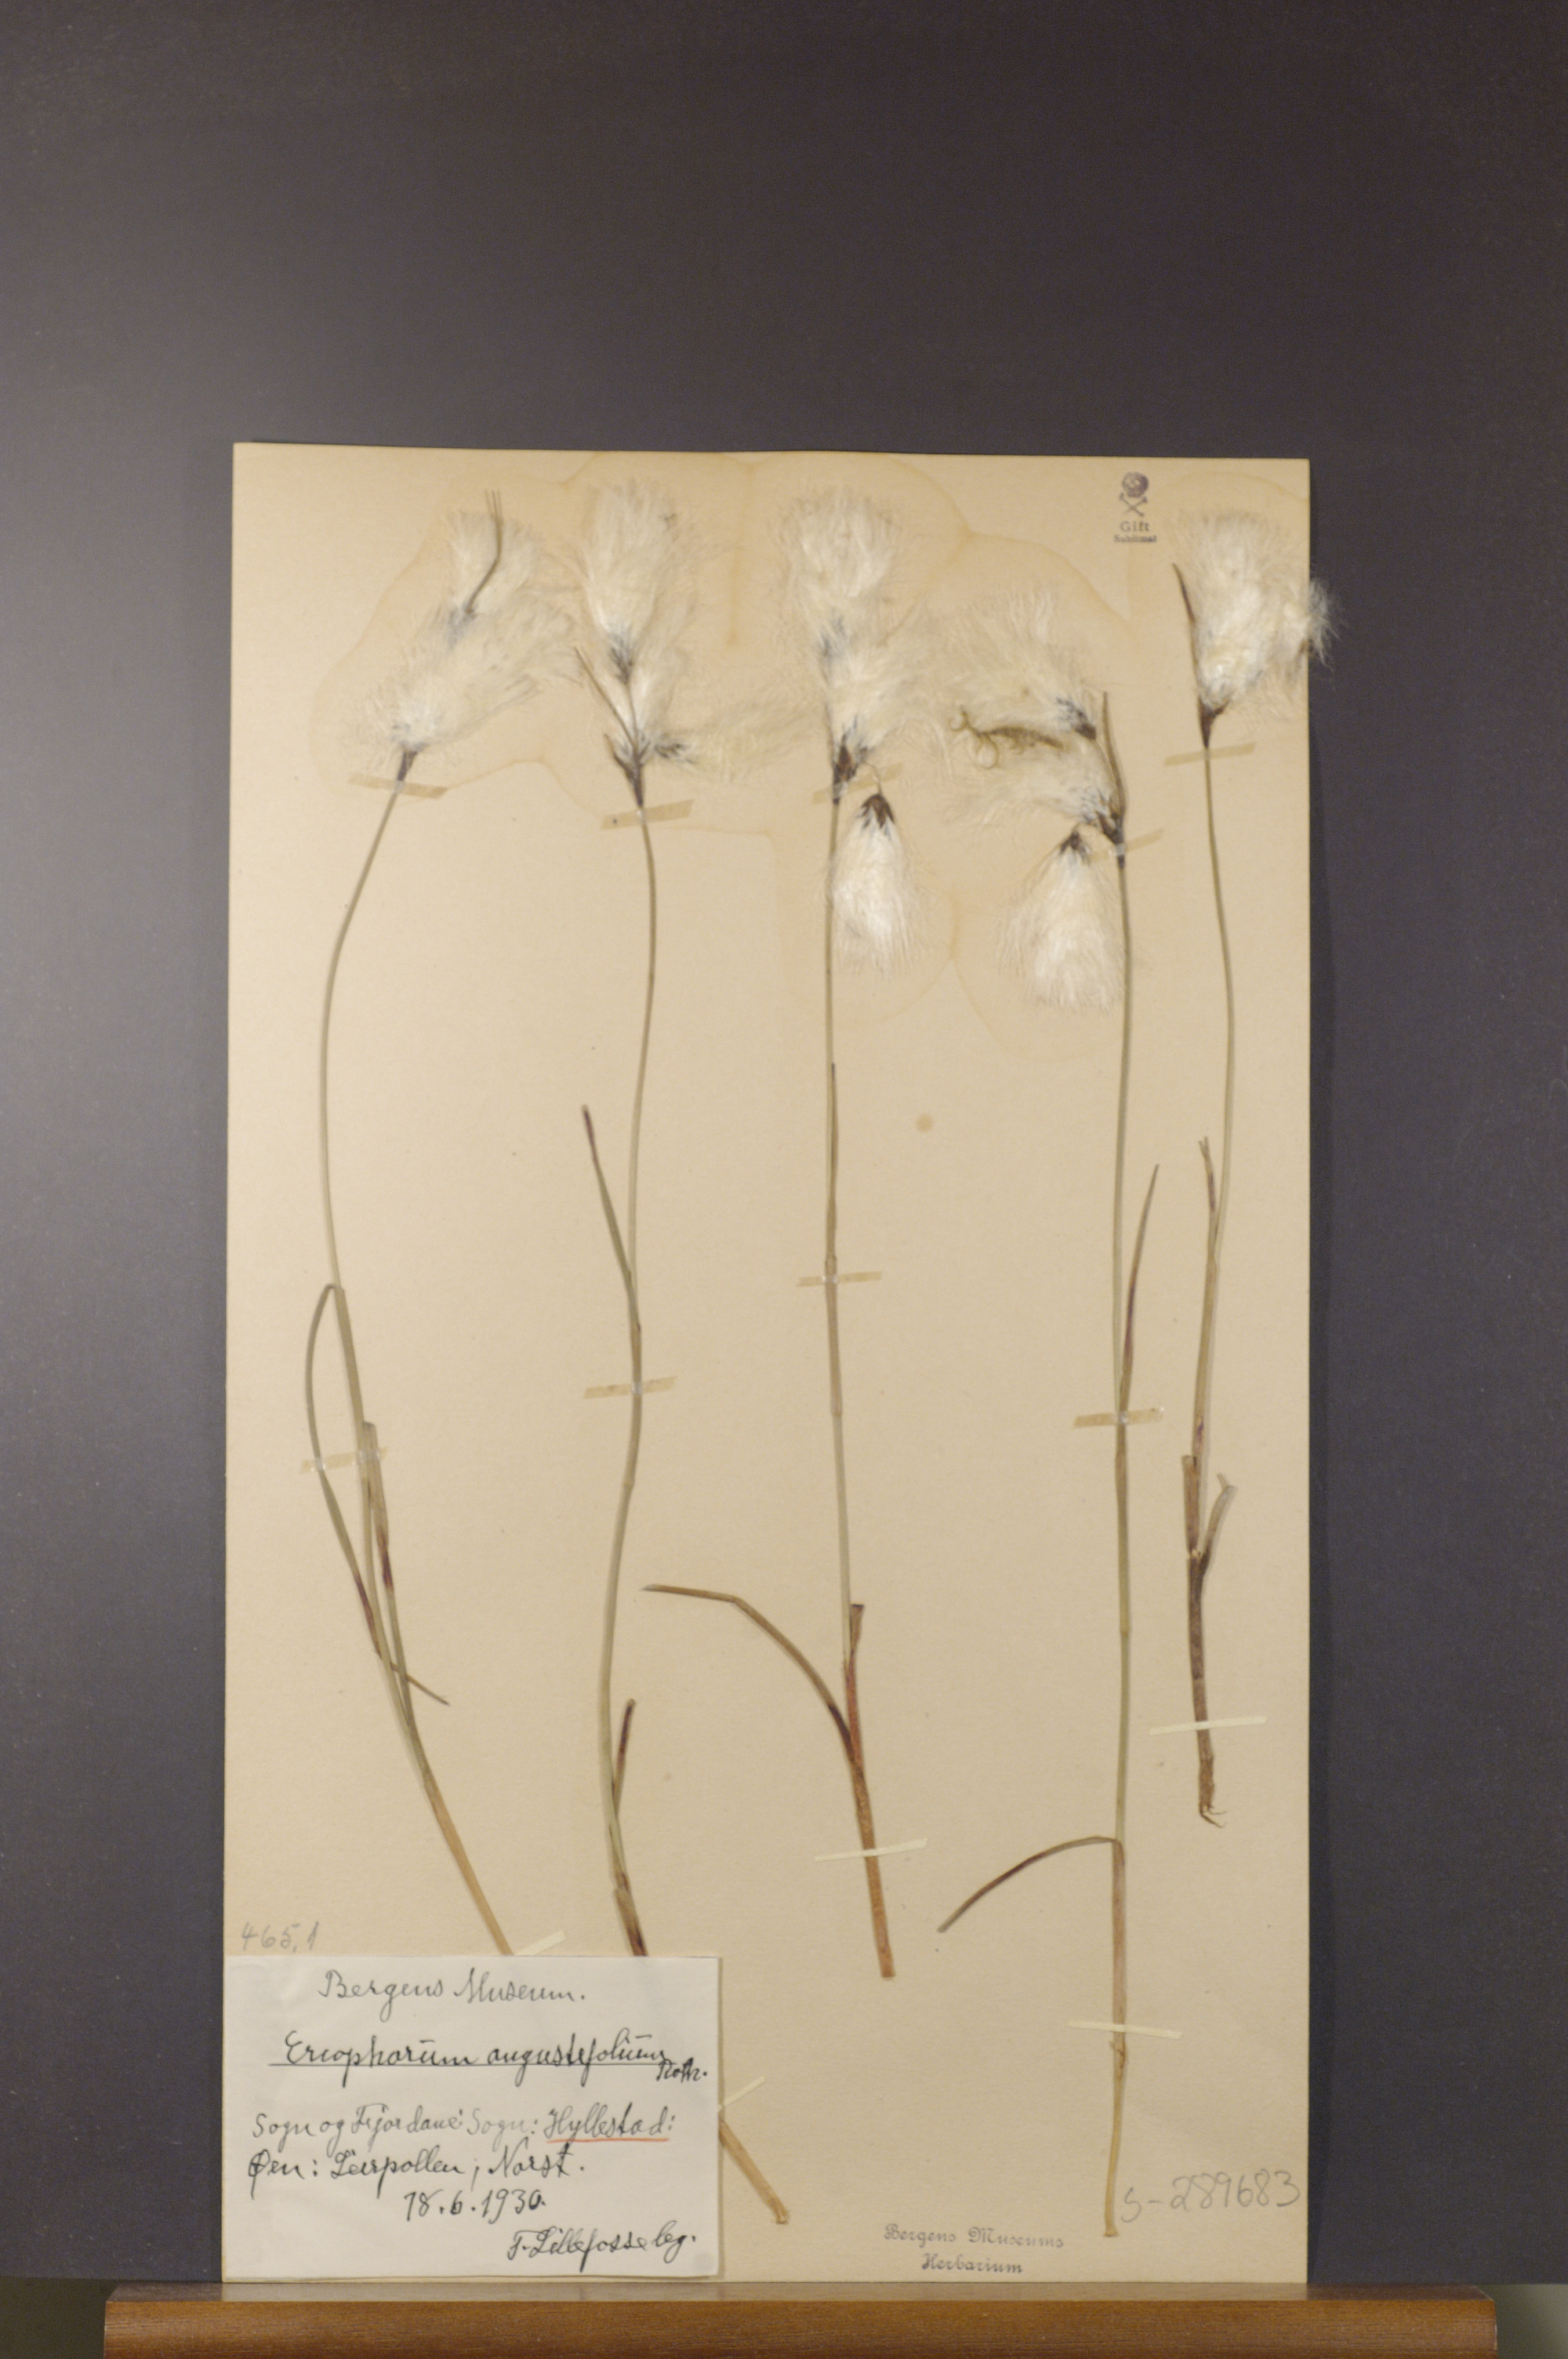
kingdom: Plantae
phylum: Tracheophyta
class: Liliopsida
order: Poales
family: Cyperaceae
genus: Eriophorum
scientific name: Eriophorum angustifolium
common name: Common cottongrass
